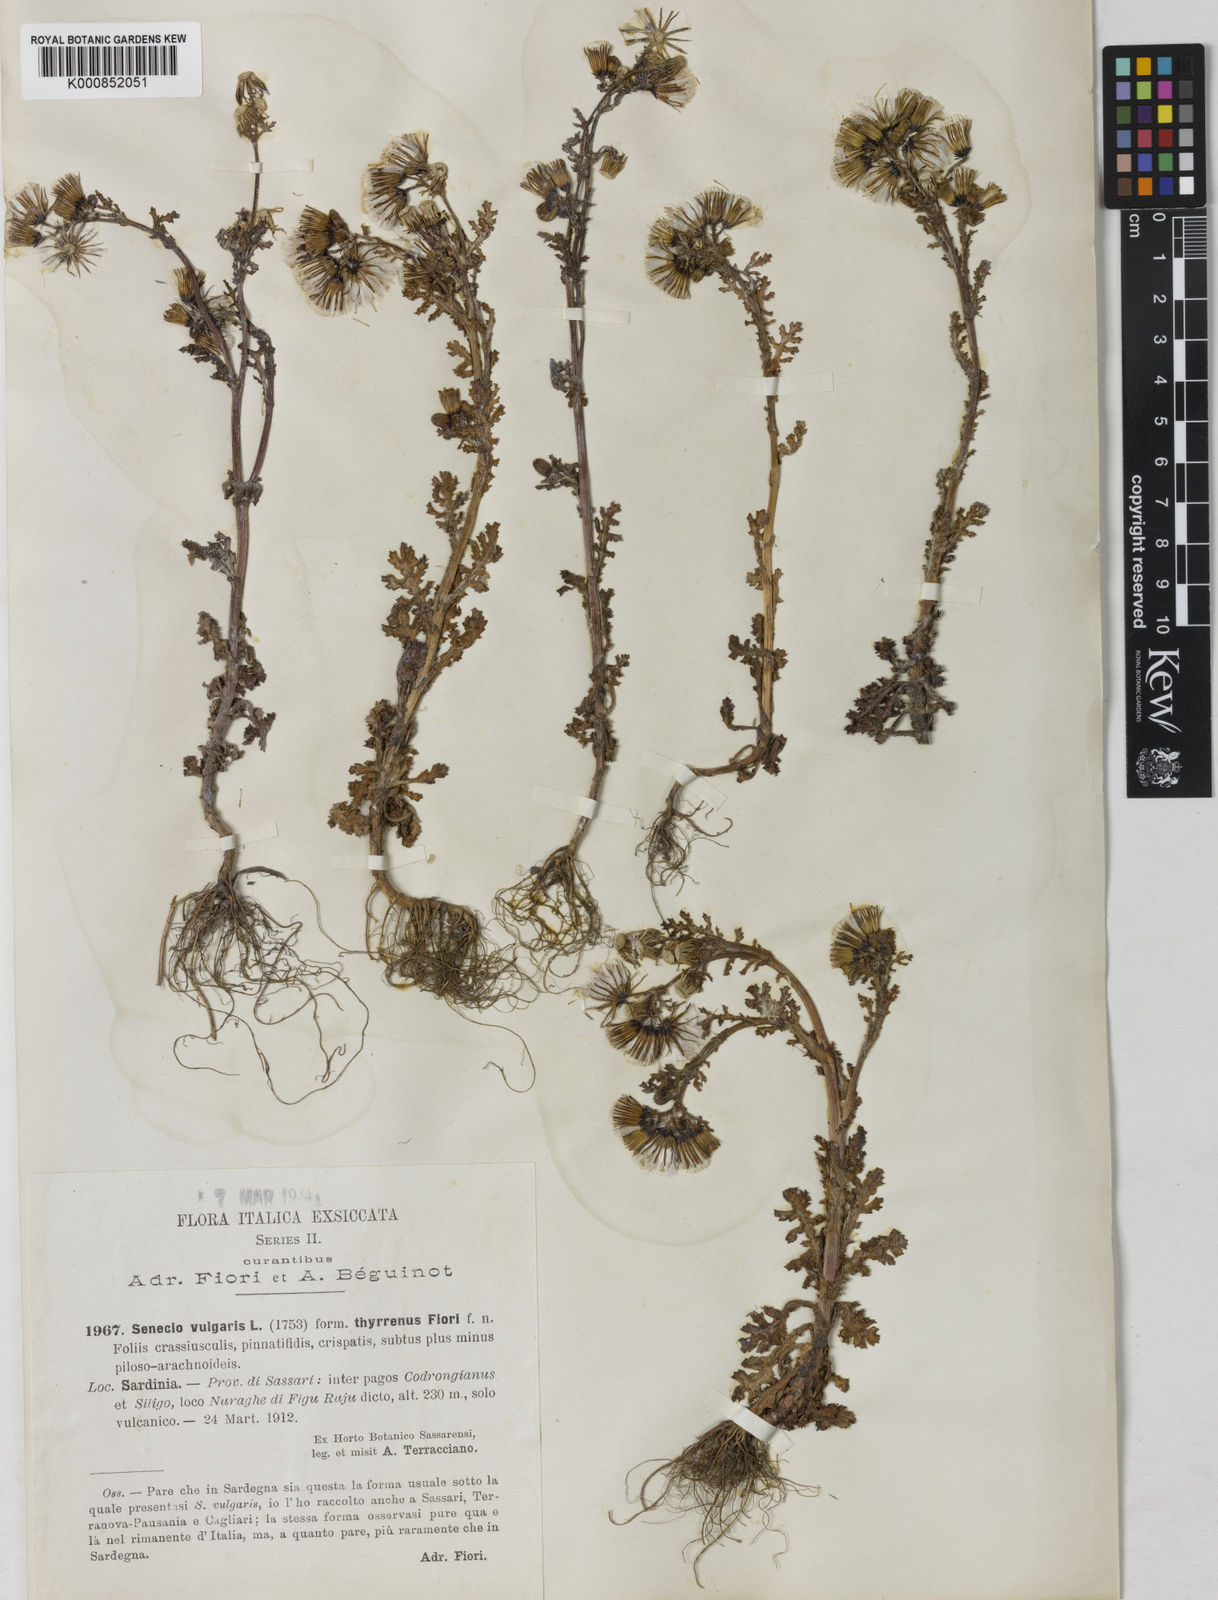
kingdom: Plantae
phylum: Tracheophyta
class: Magnoliopsida
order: Asterales
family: Asteraceae
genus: Senecio
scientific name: Senecio vulgaris
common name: Old-man-in-the-spring
